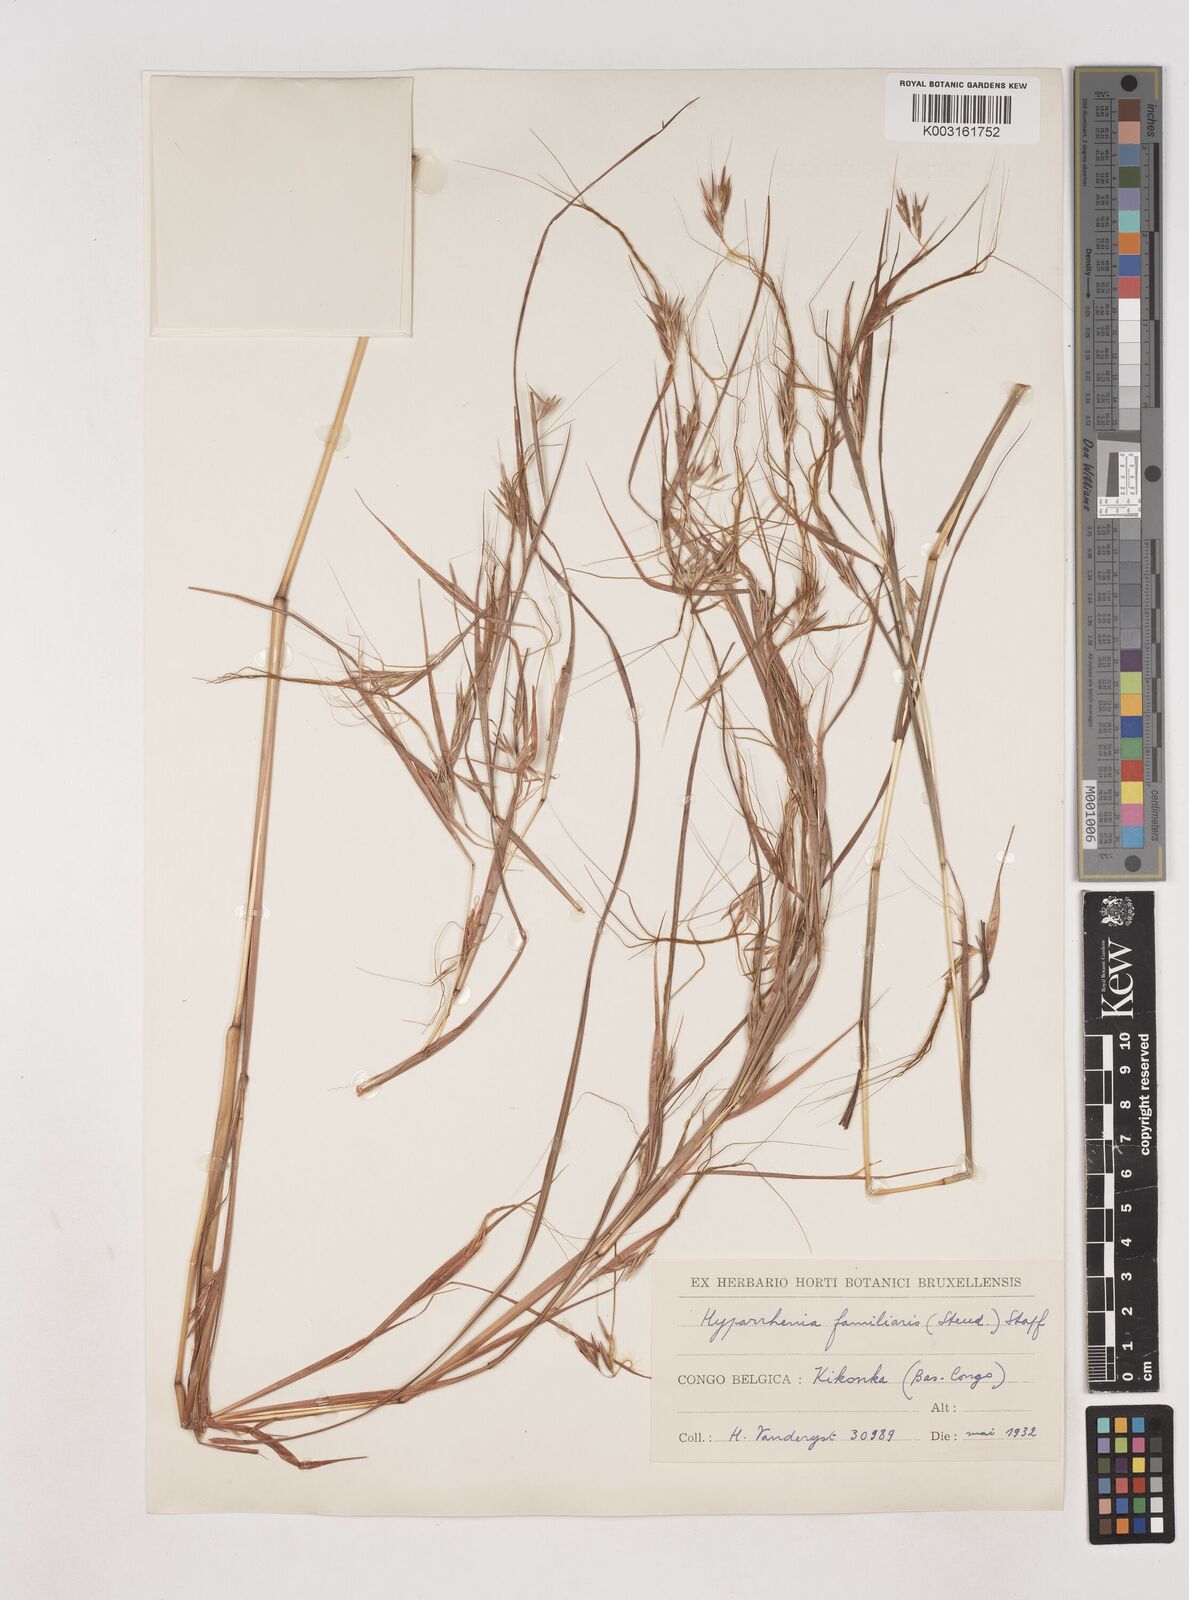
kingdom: Plantae
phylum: Tracheophyta
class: Liliopsida
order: Poales
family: Poaceae
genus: Hyparrhenia
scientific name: Hyparrhenia familiaris
